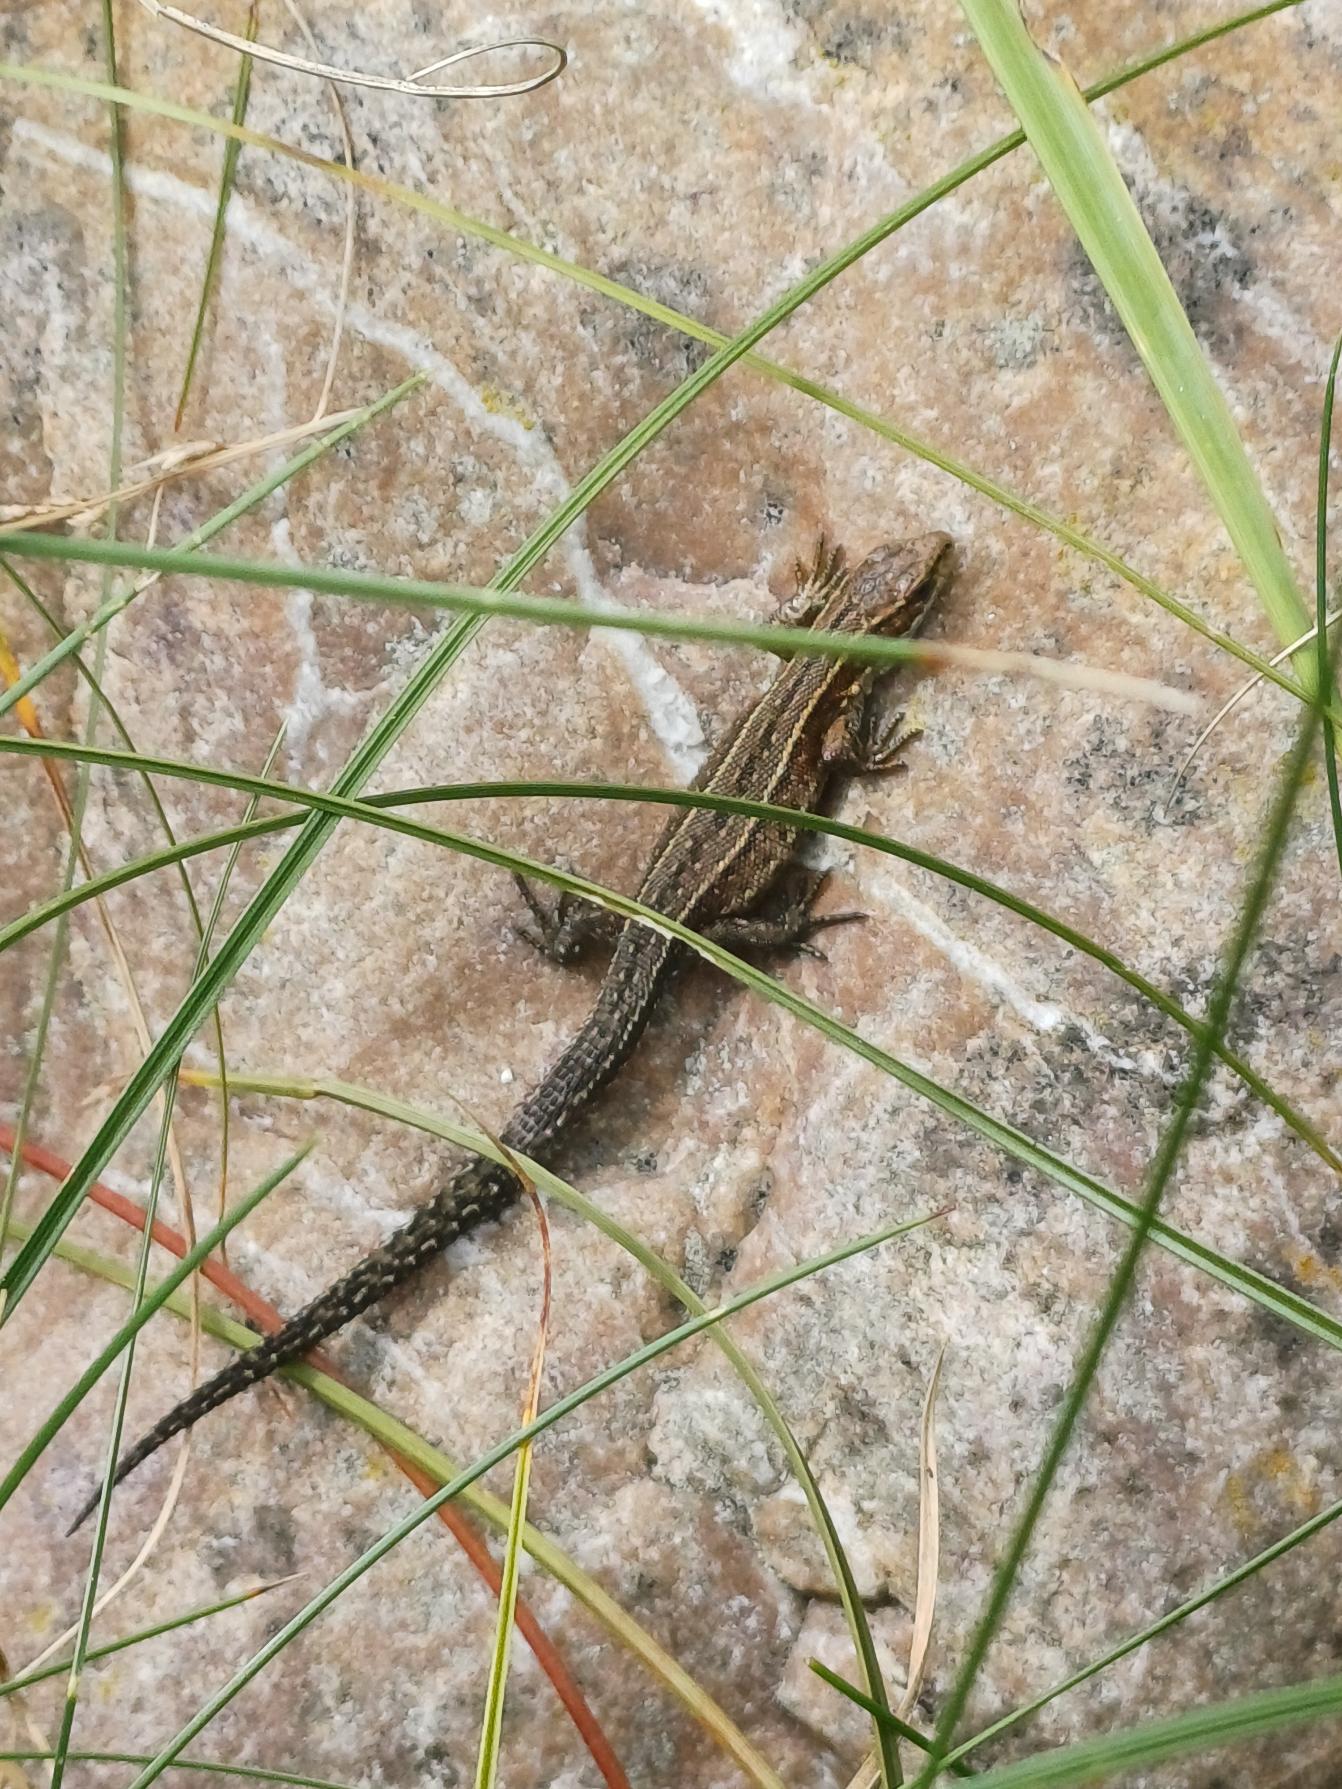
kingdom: Animalia
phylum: Chordata
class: Squamata
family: Lacertidae
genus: Zootoca
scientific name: Zootoca vivipara
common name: Skovfirben
